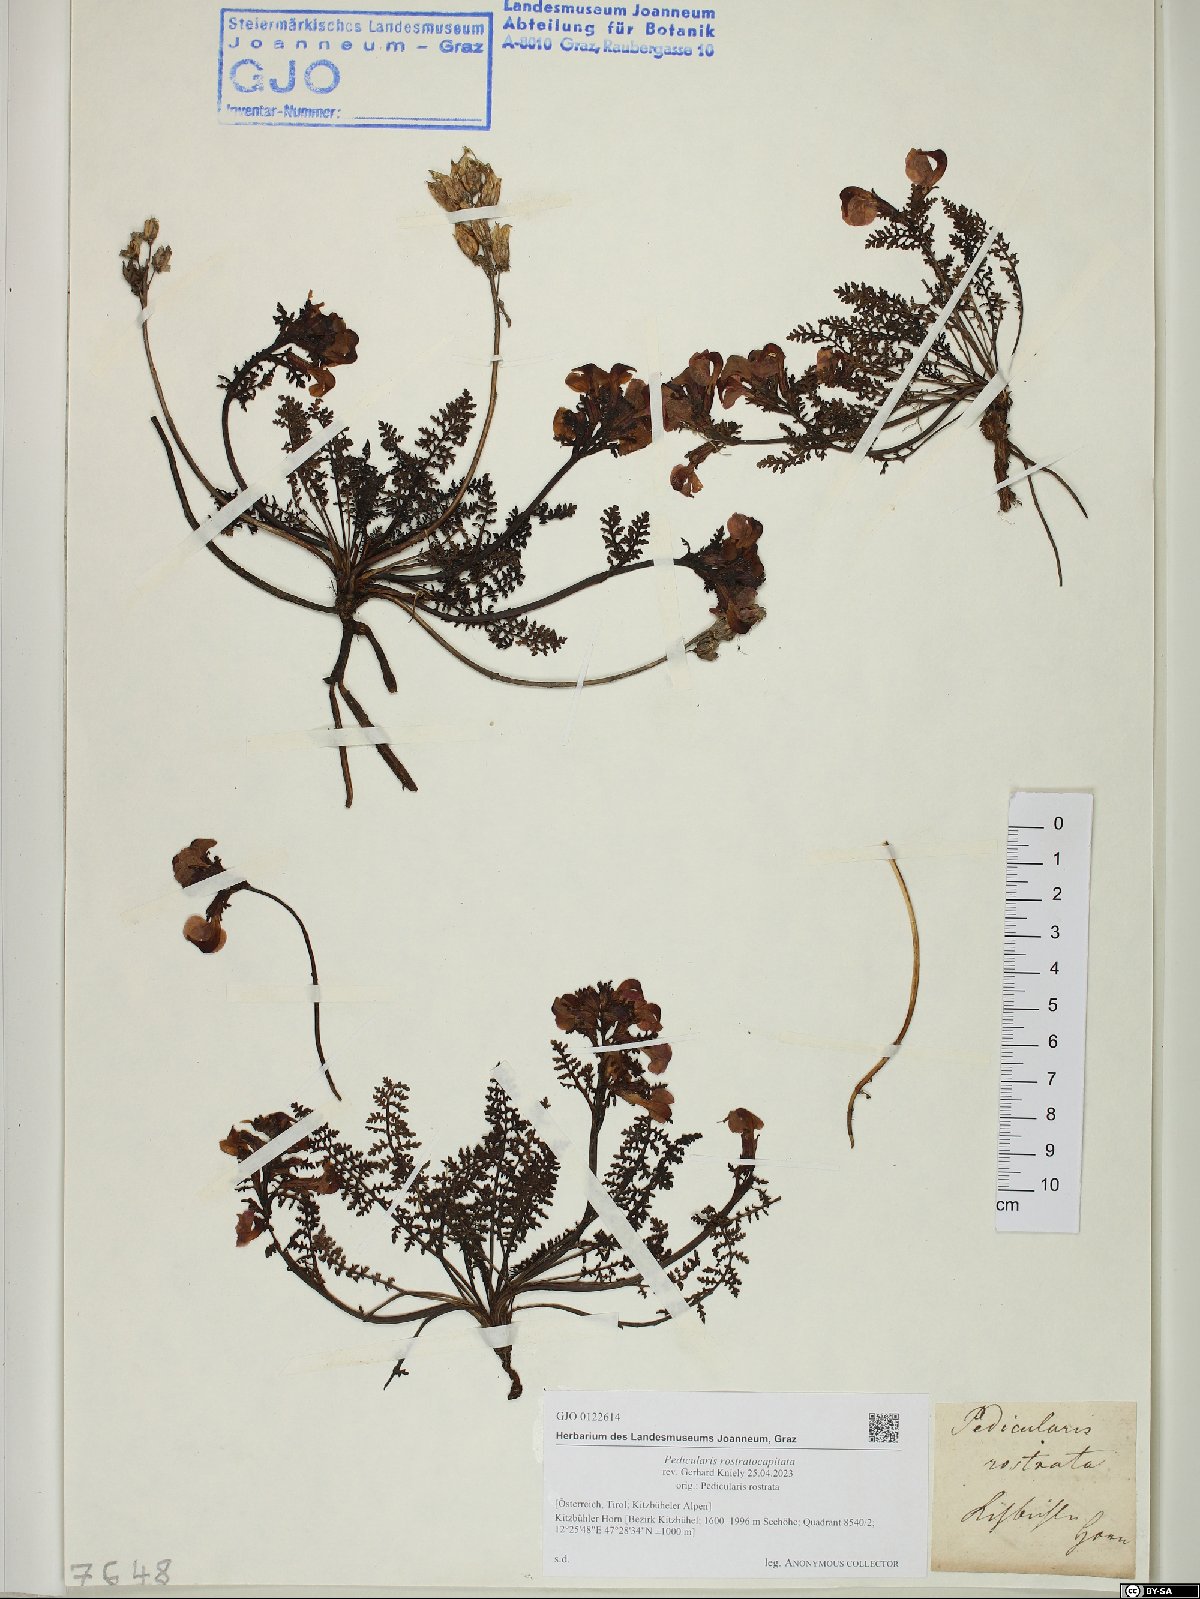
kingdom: Plantae
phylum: Tracheophyta
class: Magnoliopsida
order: Lamiales
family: Orobanchaceae
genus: Pedicularis
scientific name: Pedicularis rostratocapitata
